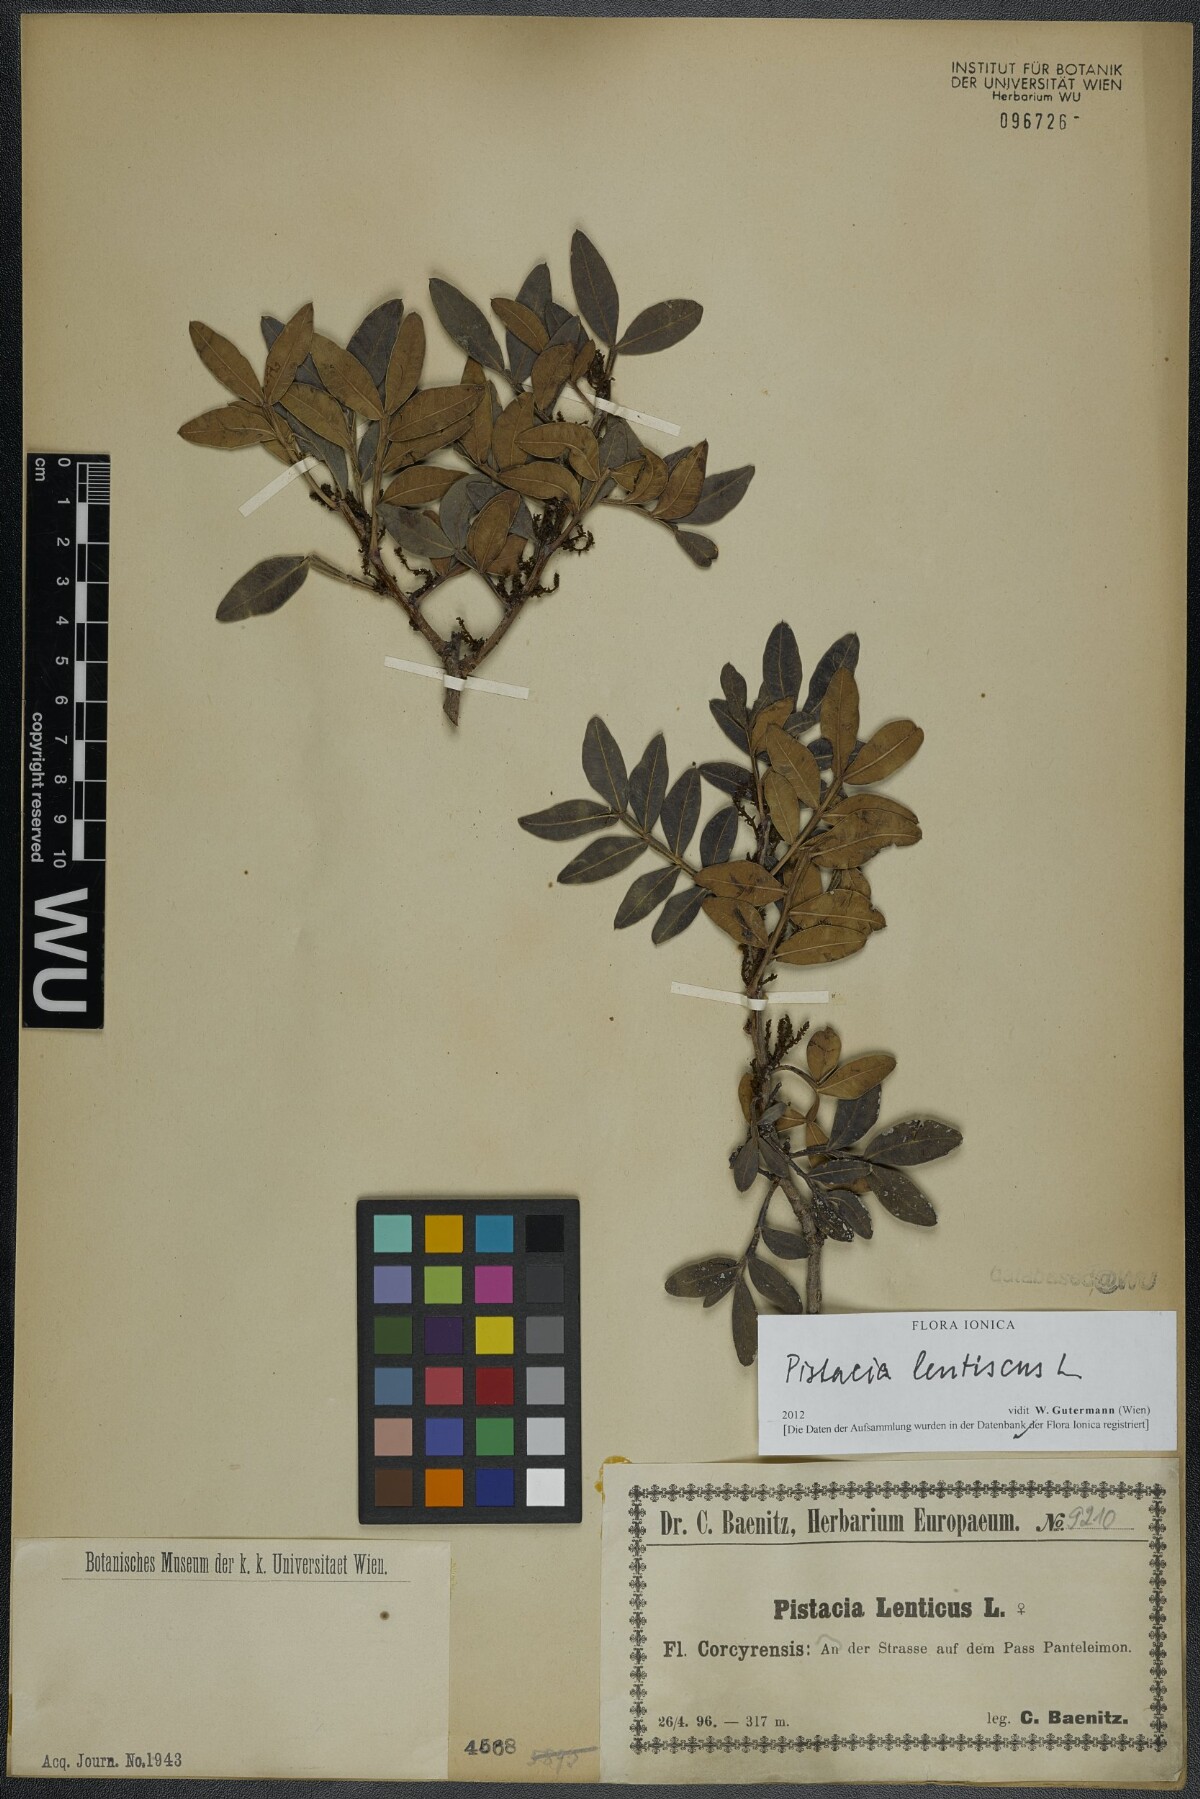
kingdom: Plantae
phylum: Tracheophyta
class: Magnoliopsida
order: Sapindales
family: Anacardiaceae
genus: Pistacia
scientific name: Pistacia lentiscus
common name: Lentisk
